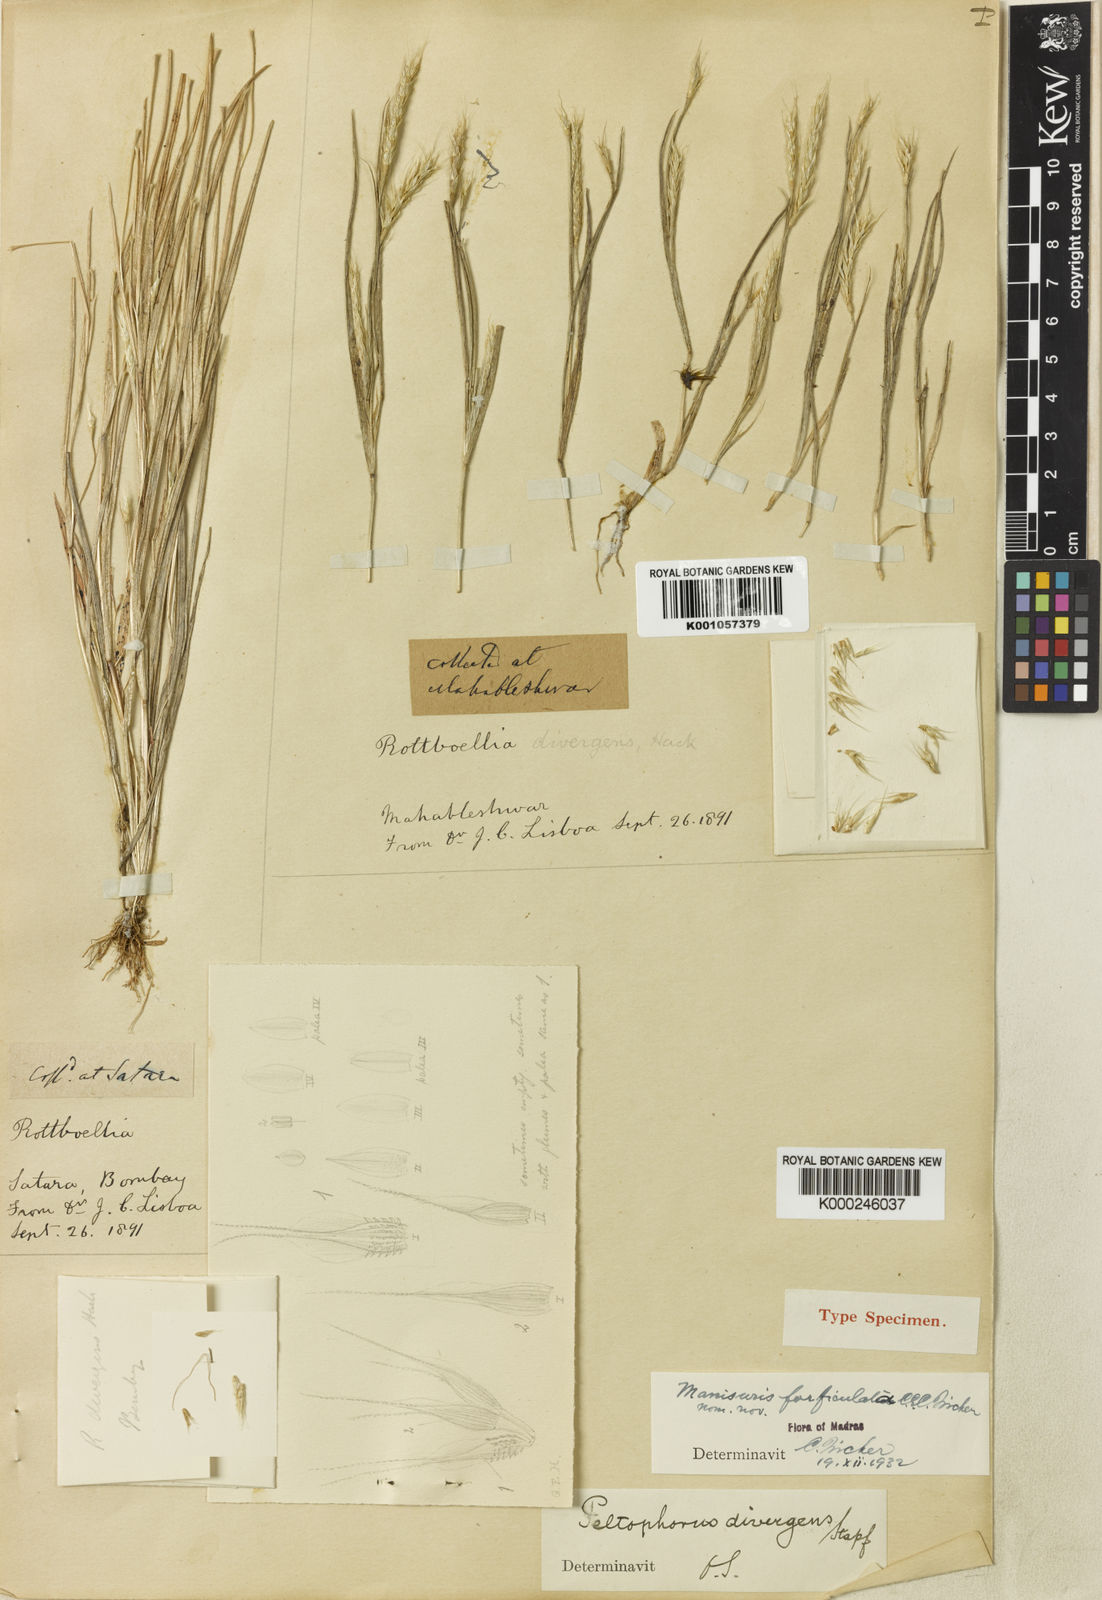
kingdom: Plantae
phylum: Tracheophyta
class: Liliopsida
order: Poales
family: Poaceae
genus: Glyphochloa
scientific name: Glyphochloa forficulata
